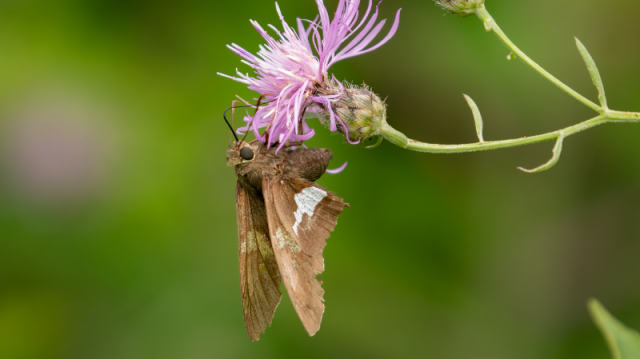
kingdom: Animalia
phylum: Arthropoda
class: Insecta
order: Lepidoptera
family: Hesperiidae
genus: Epargyreus
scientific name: Epargyreus clarus
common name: Silver-spotted Skipper
